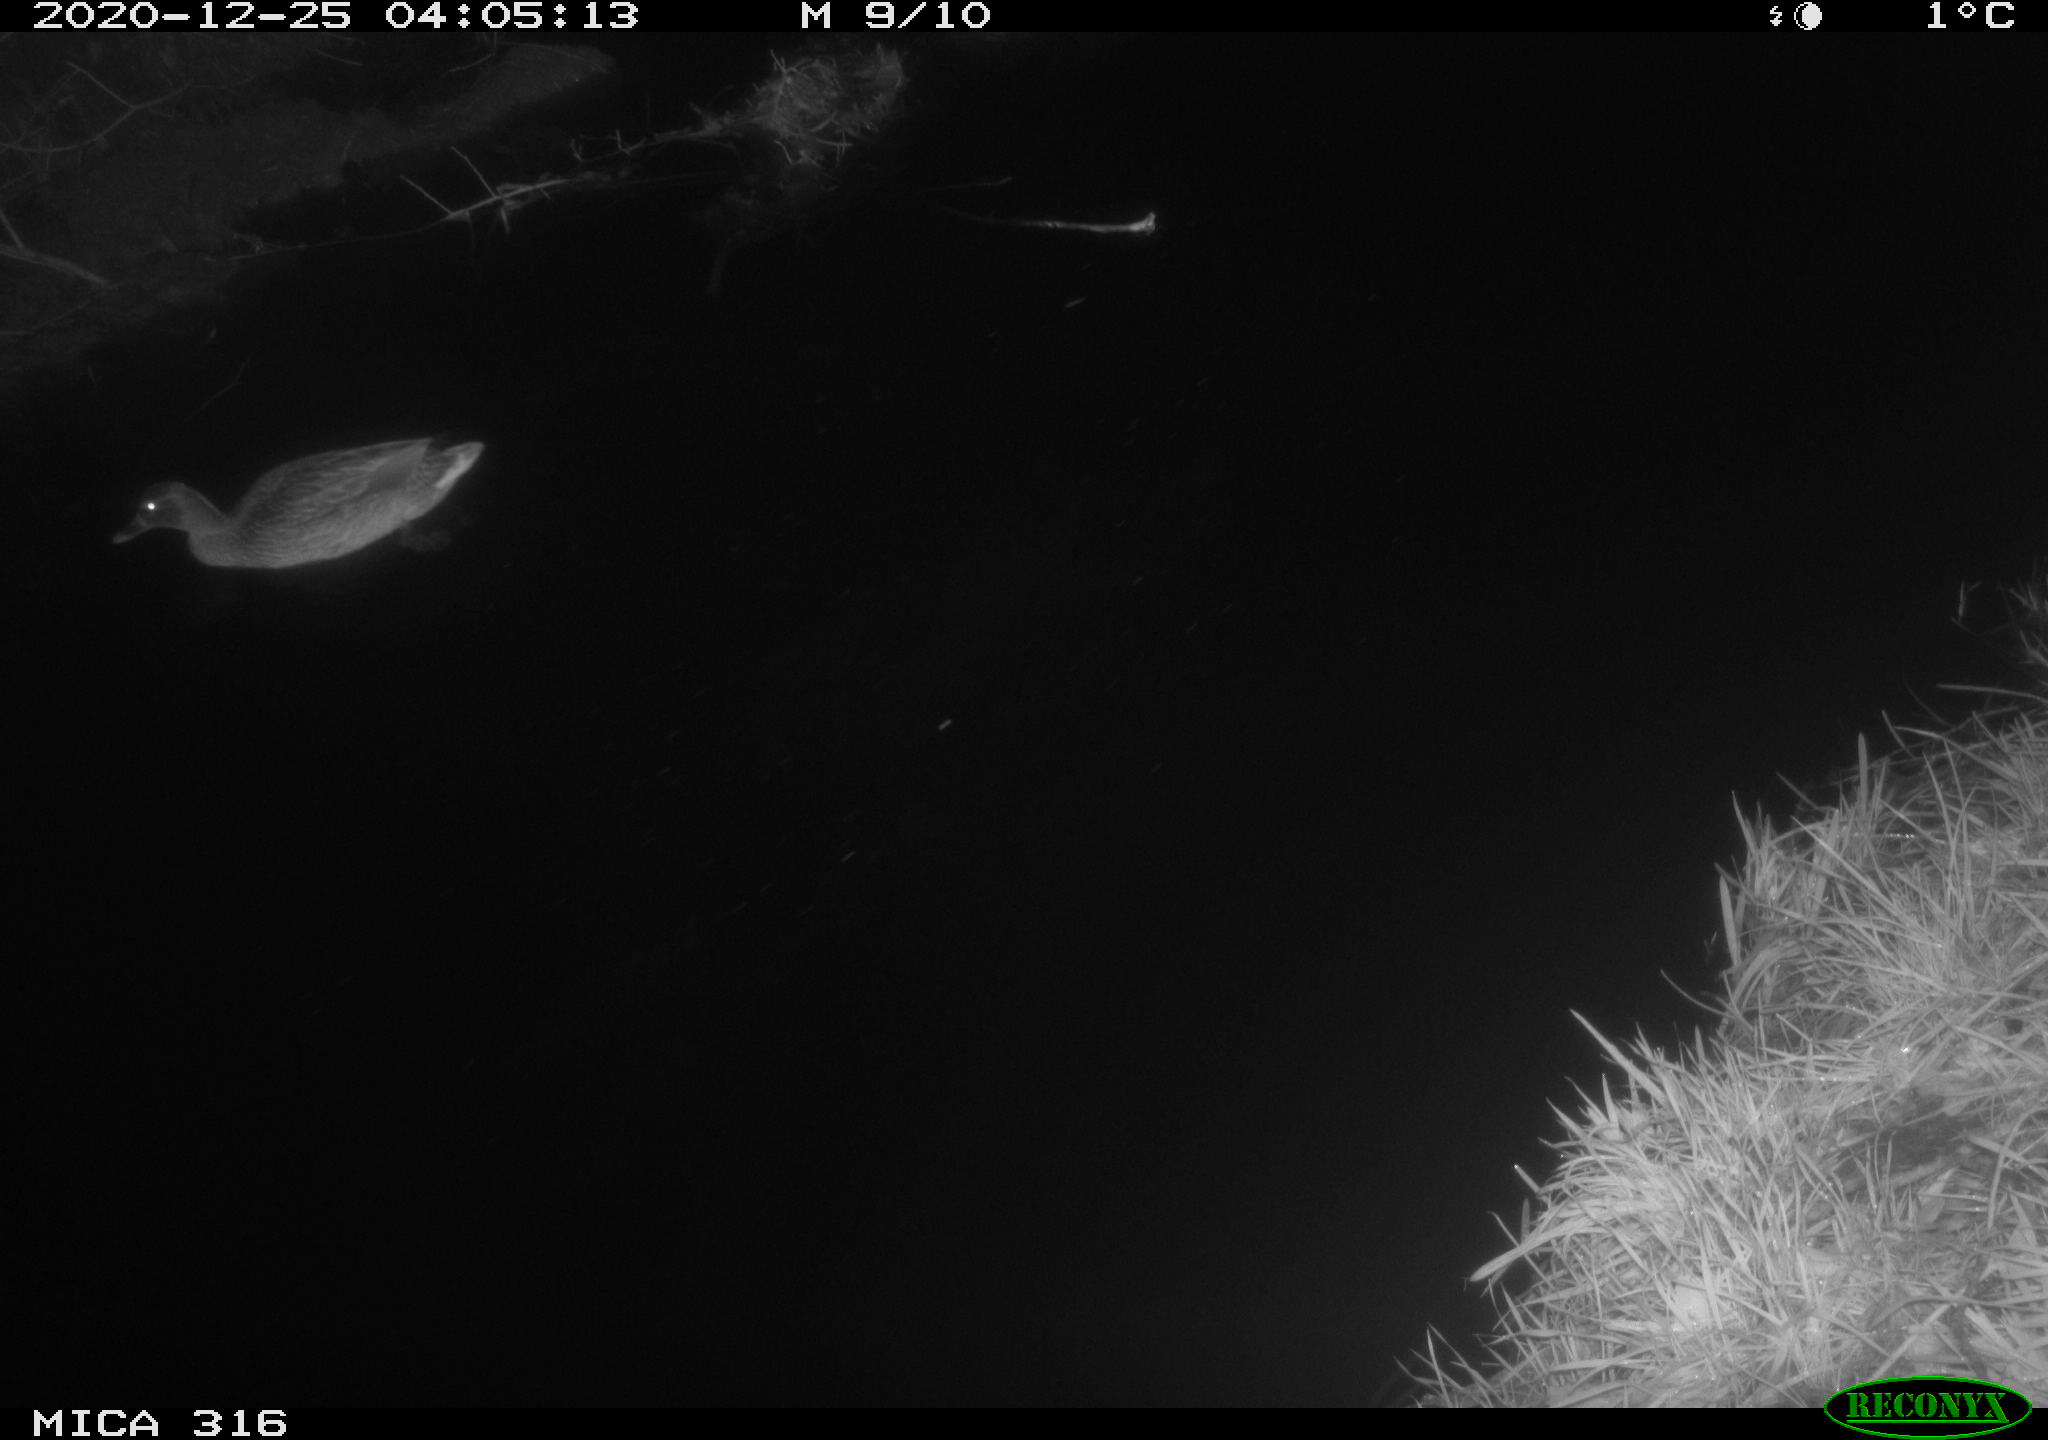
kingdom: Animalia
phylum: Chordata
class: Aves
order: Anseriformes
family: Anatidae
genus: Anas
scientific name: Anas platyrhynchos
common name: Mallard
